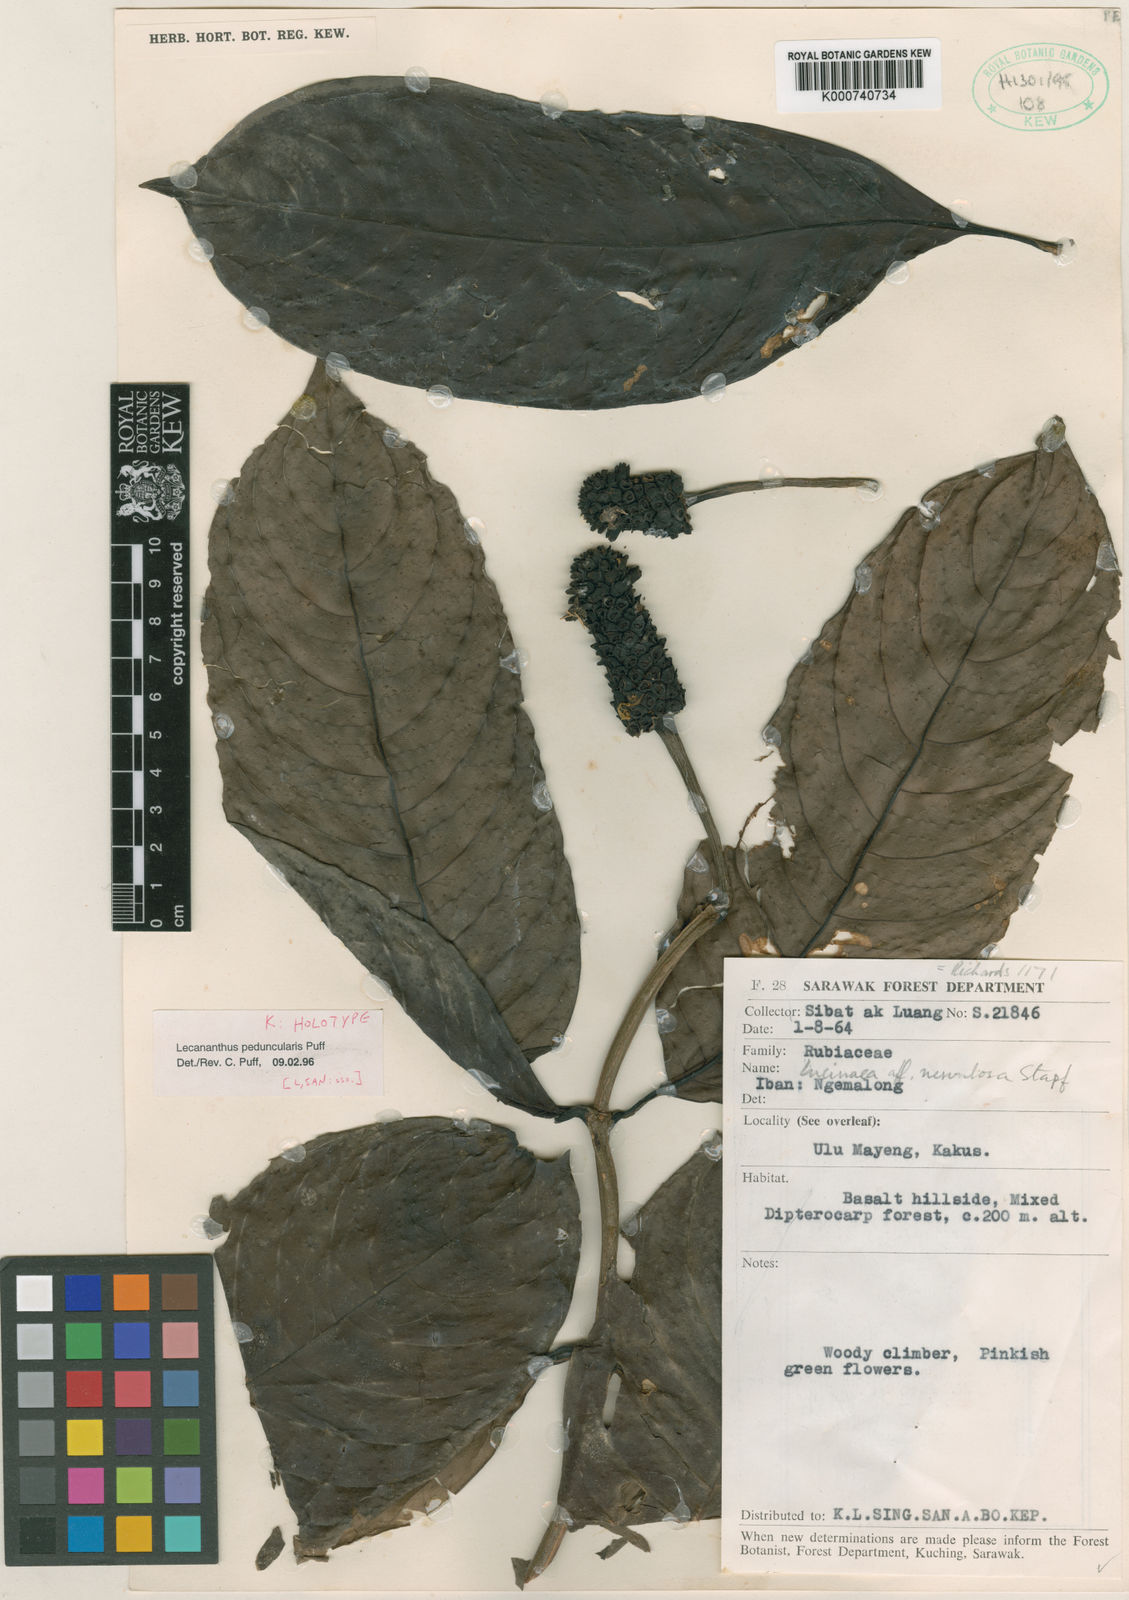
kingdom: Plantae
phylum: Tracheophyta
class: Magnoliopsida
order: Gentianales
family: Rubiaceae
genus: Lecananthus
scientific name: Lecananthus peduncularis
